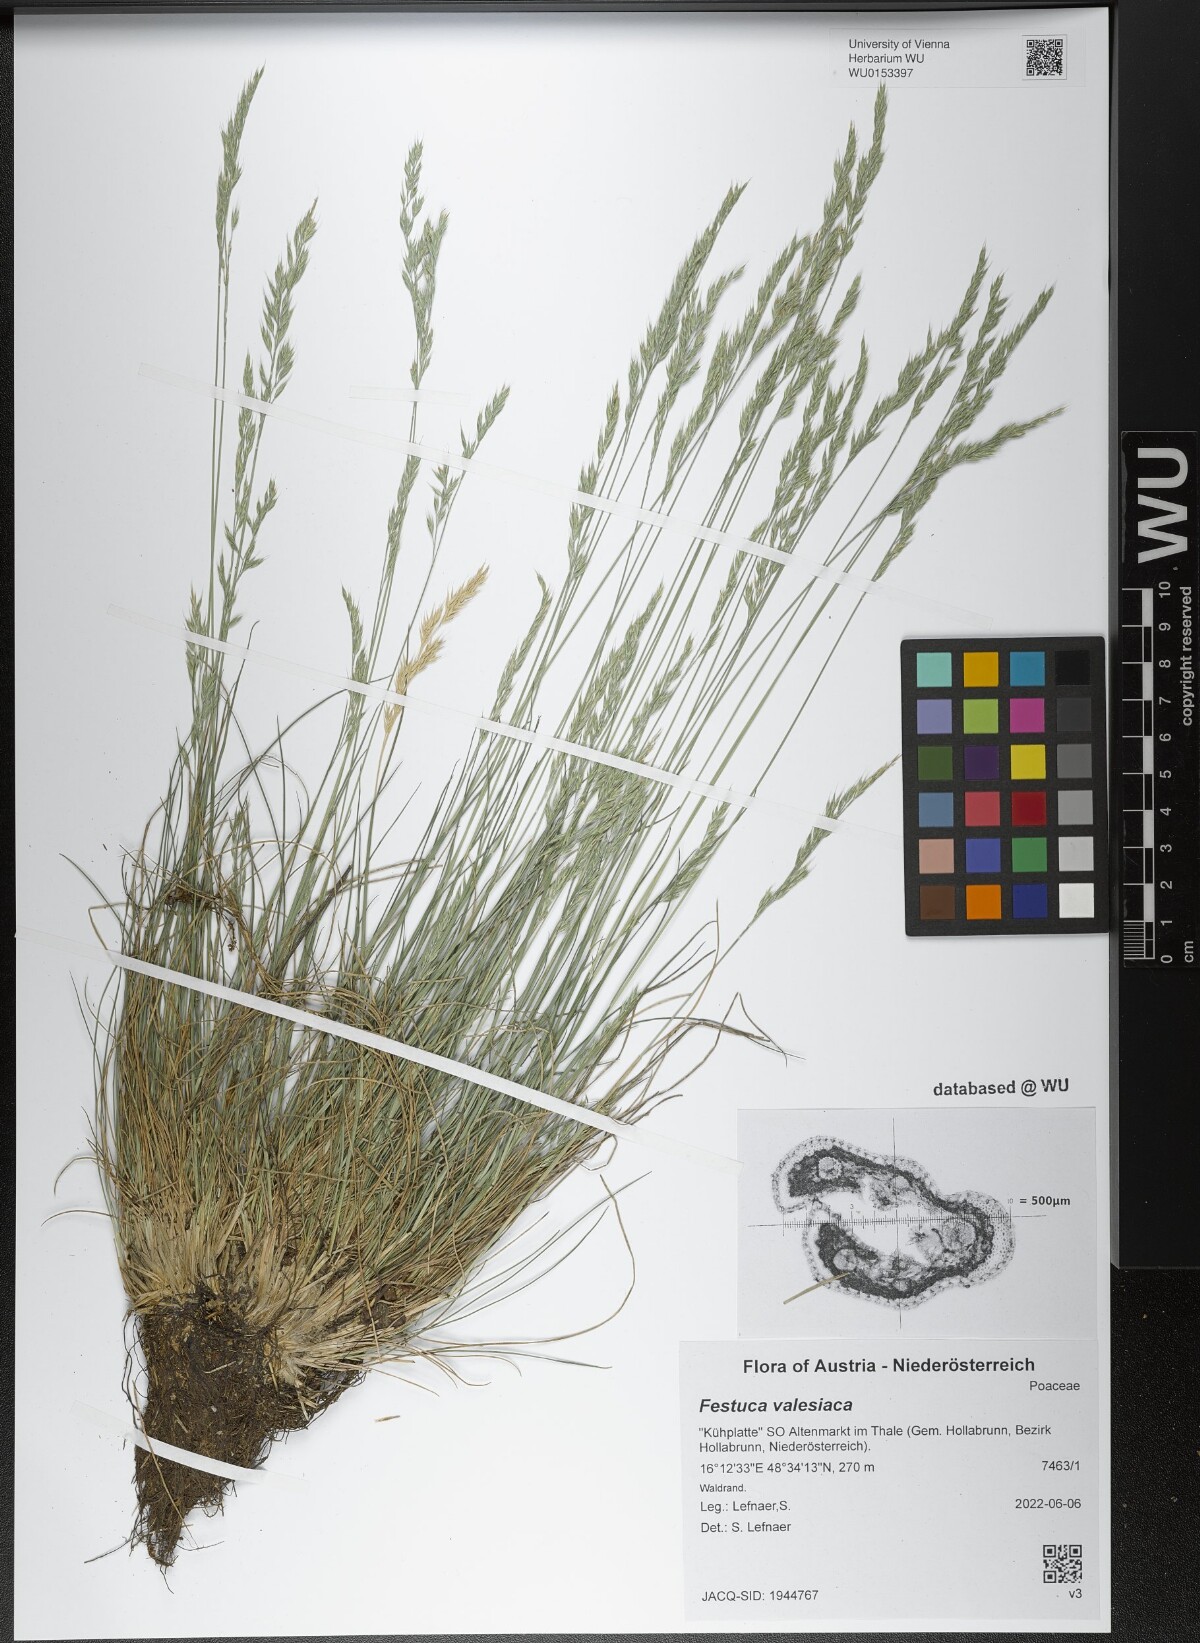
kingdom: Plantae
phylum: Tracheophyta
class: Liliopsida
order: Poales
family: Poaceae
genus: Festuca
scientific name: Festuca valesiaca
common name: Volga fescue
